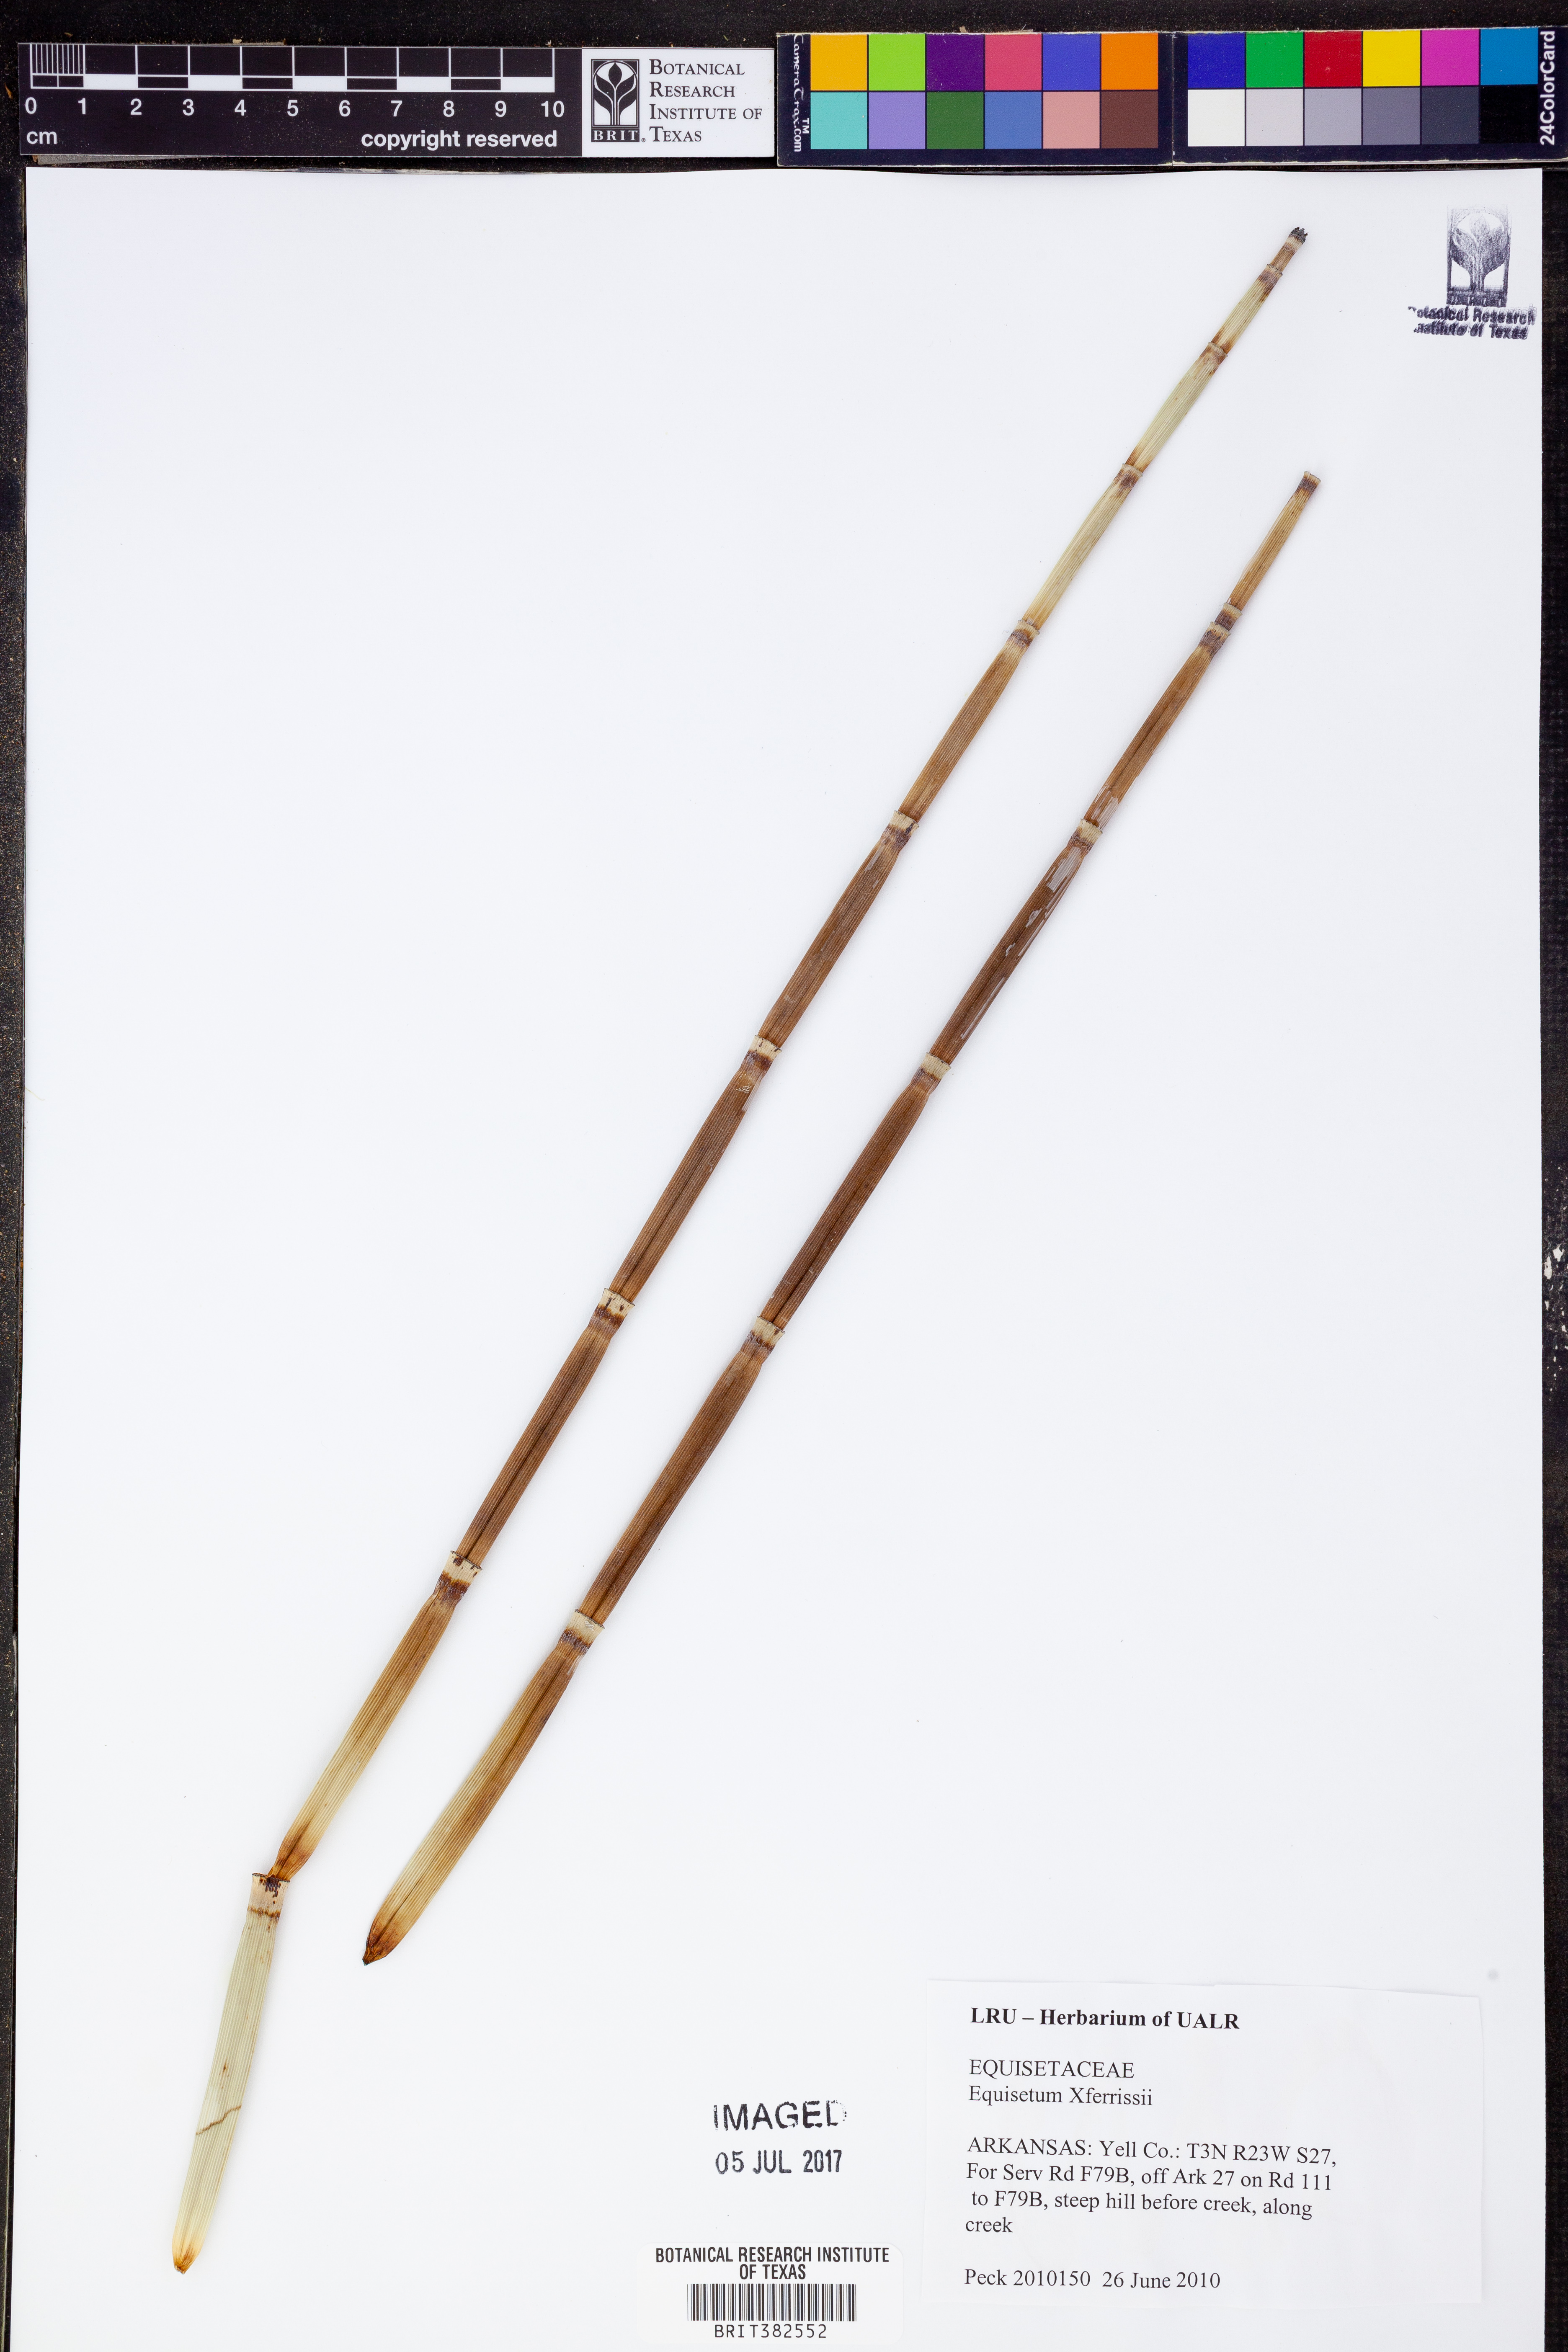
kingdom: Plantae
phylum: Tracheophyta
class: Polypodiopsida
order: Equisetales
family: Equisetaceae
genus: Equisetum
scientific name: Equisetum ferrissii
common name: Ferriss' horsetail
